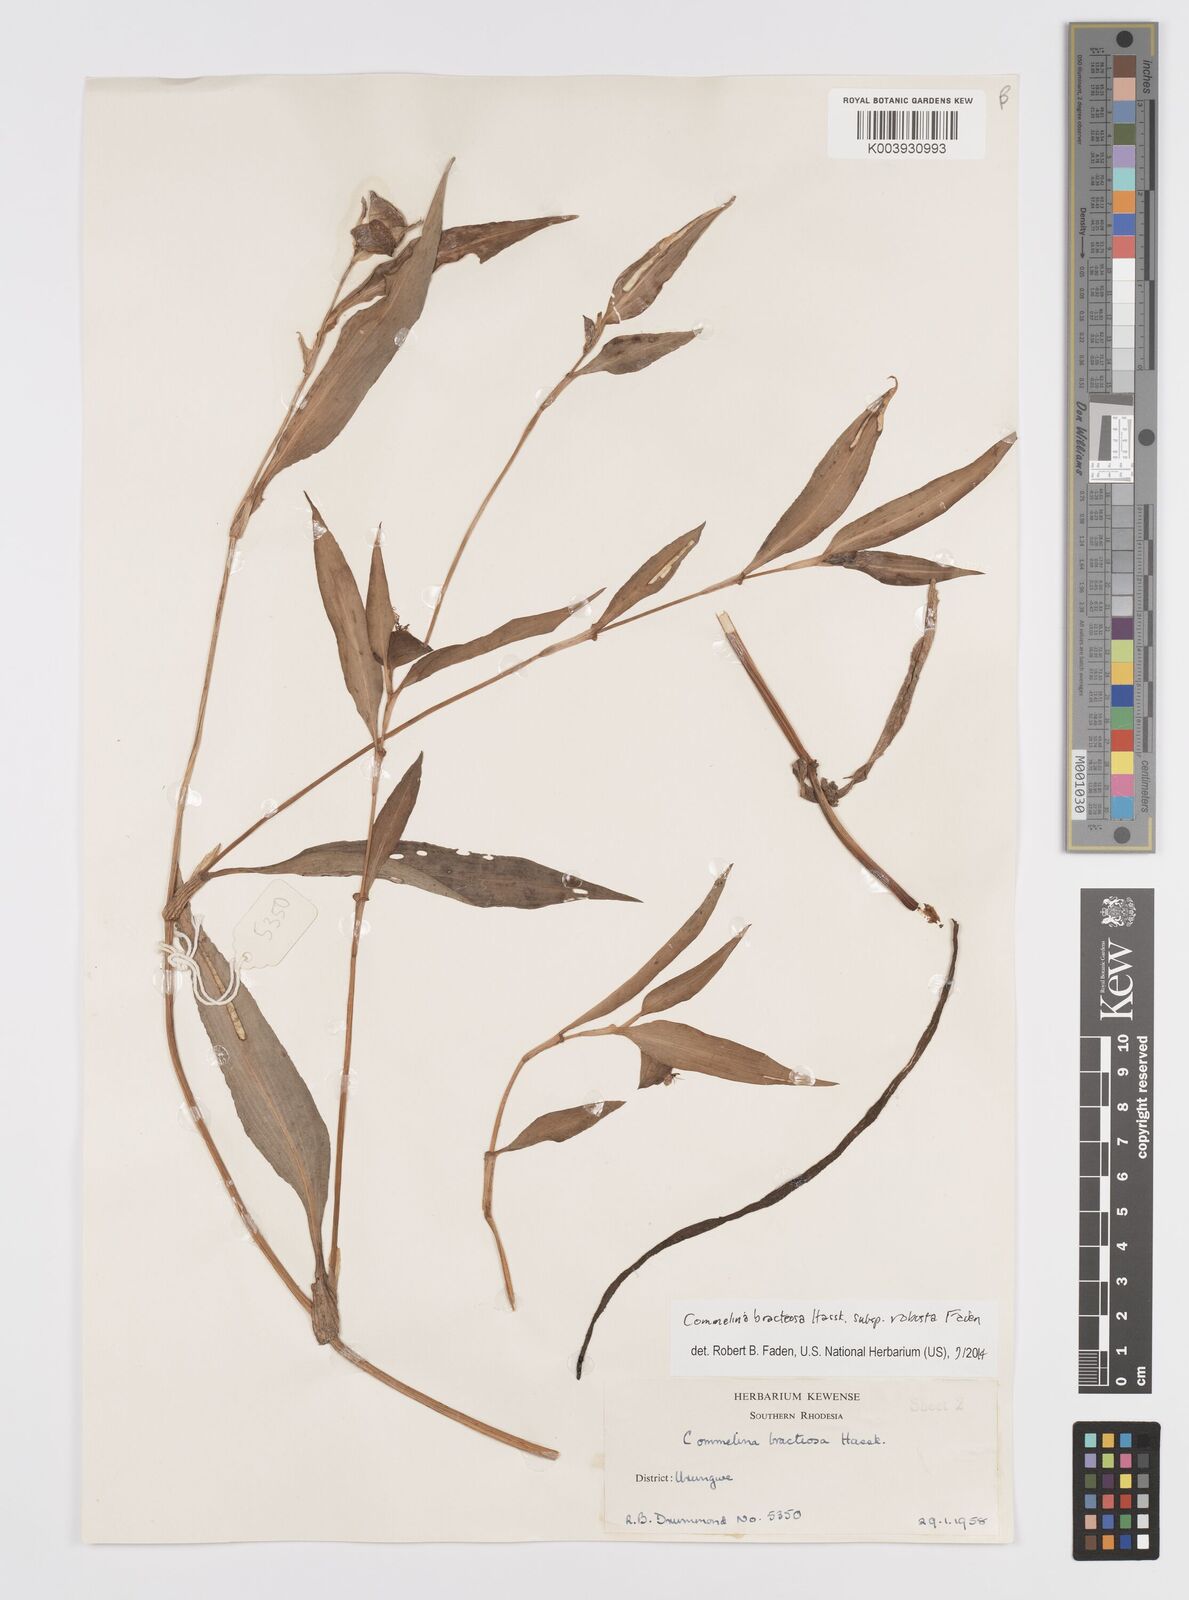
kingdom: Plantae
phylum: Tracheophyta
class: Liliopsida
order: Commelinales
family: Commelinaceae
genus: Commelina
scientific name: Commelina bracteosa
